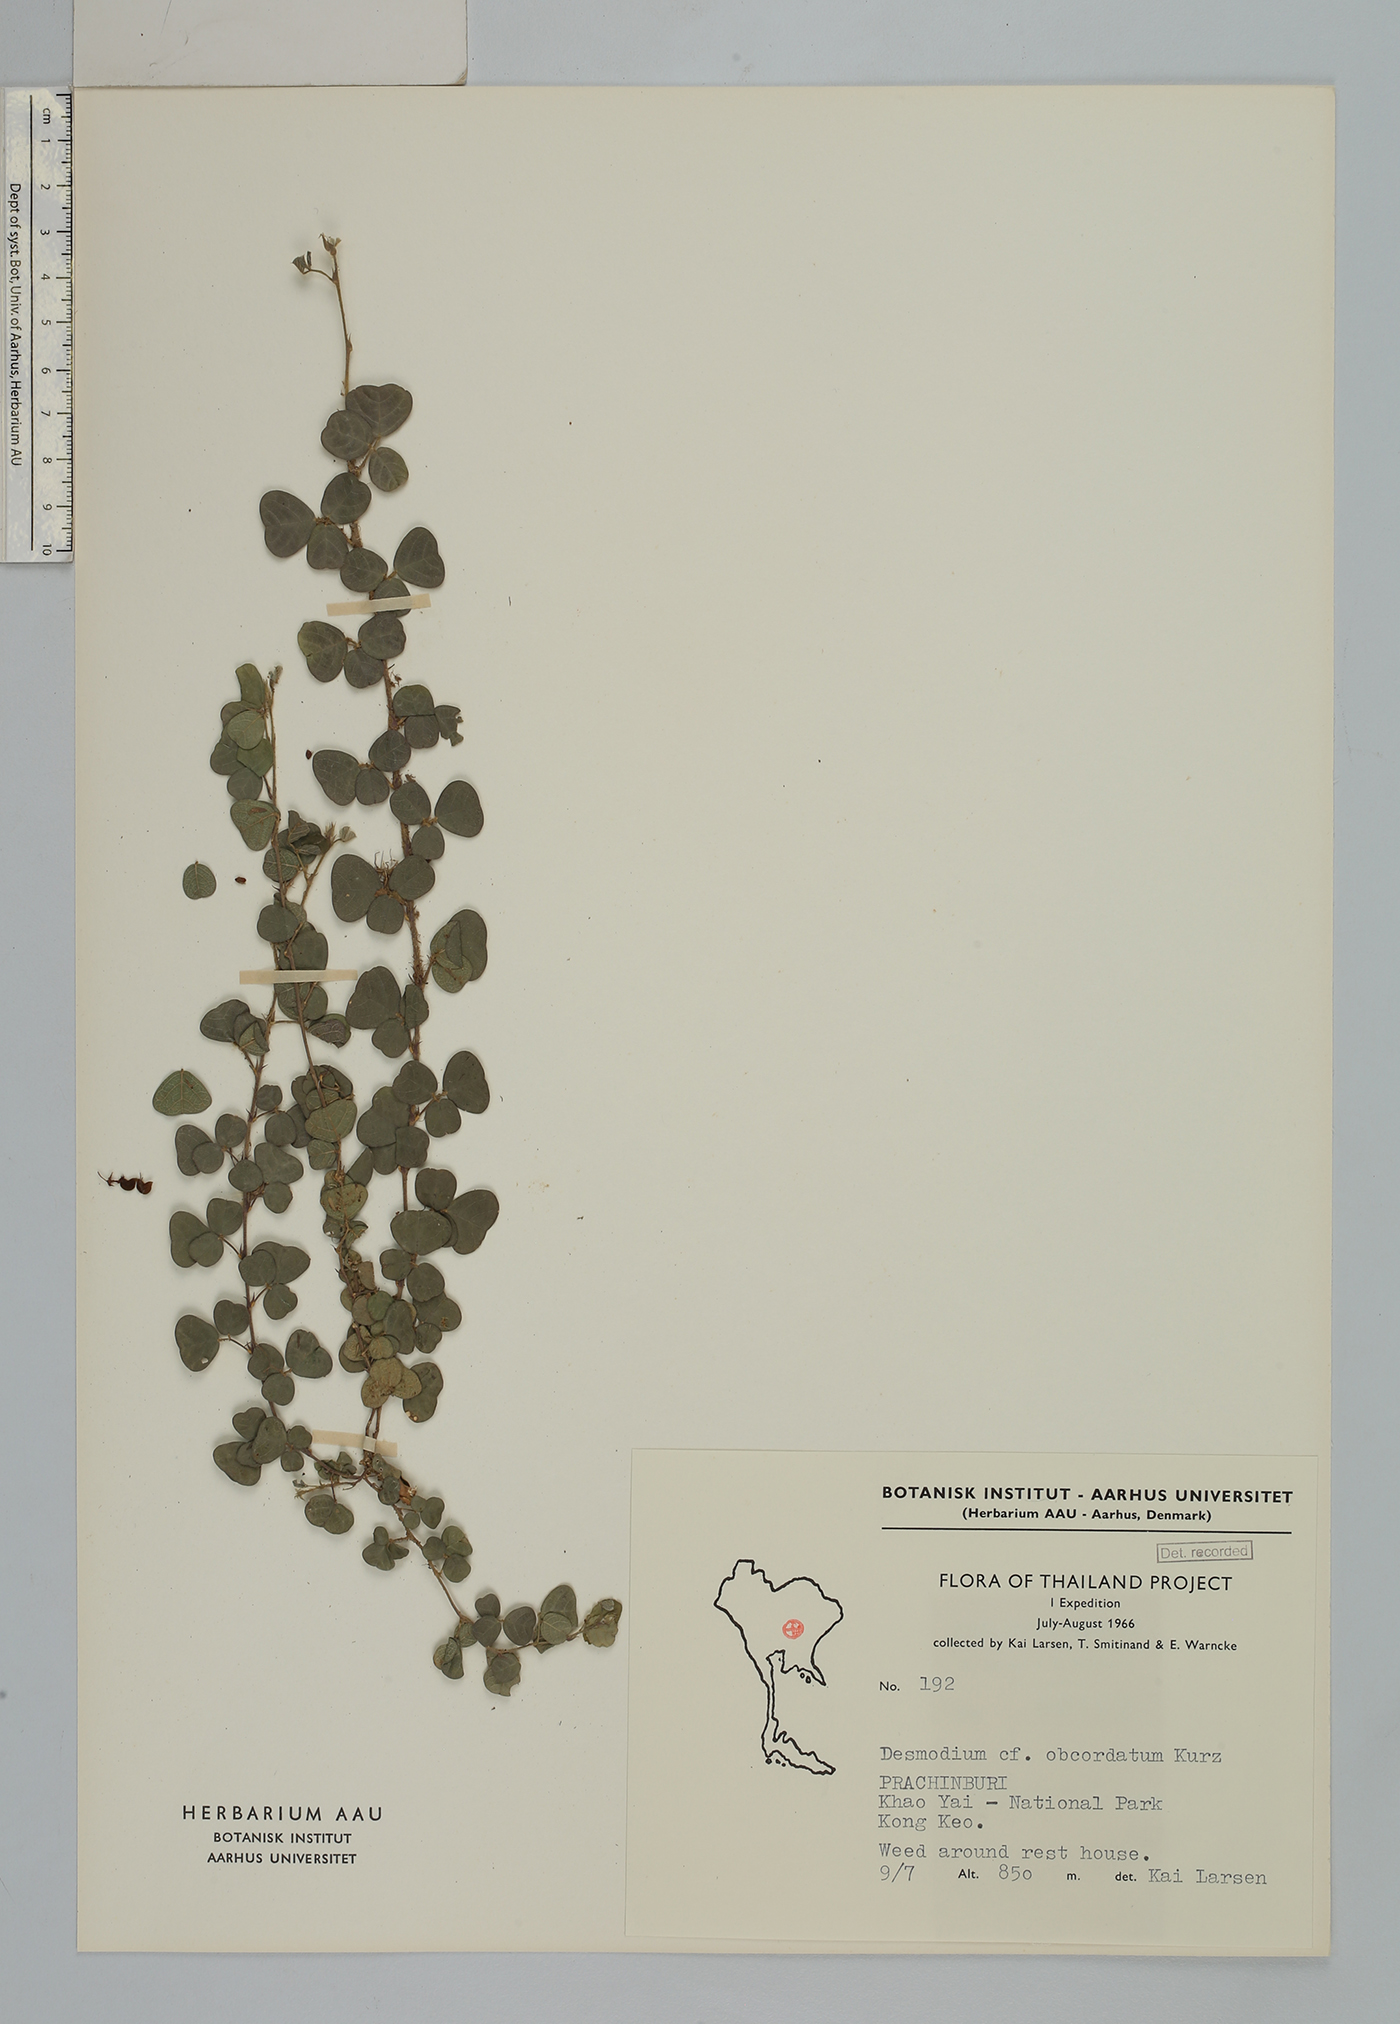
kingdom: Plantae
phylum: Tracheophyta
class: Magnoliopsida
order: Fabales
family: Fabaceae
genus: Hegnera
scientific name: Hegnera obcordata
